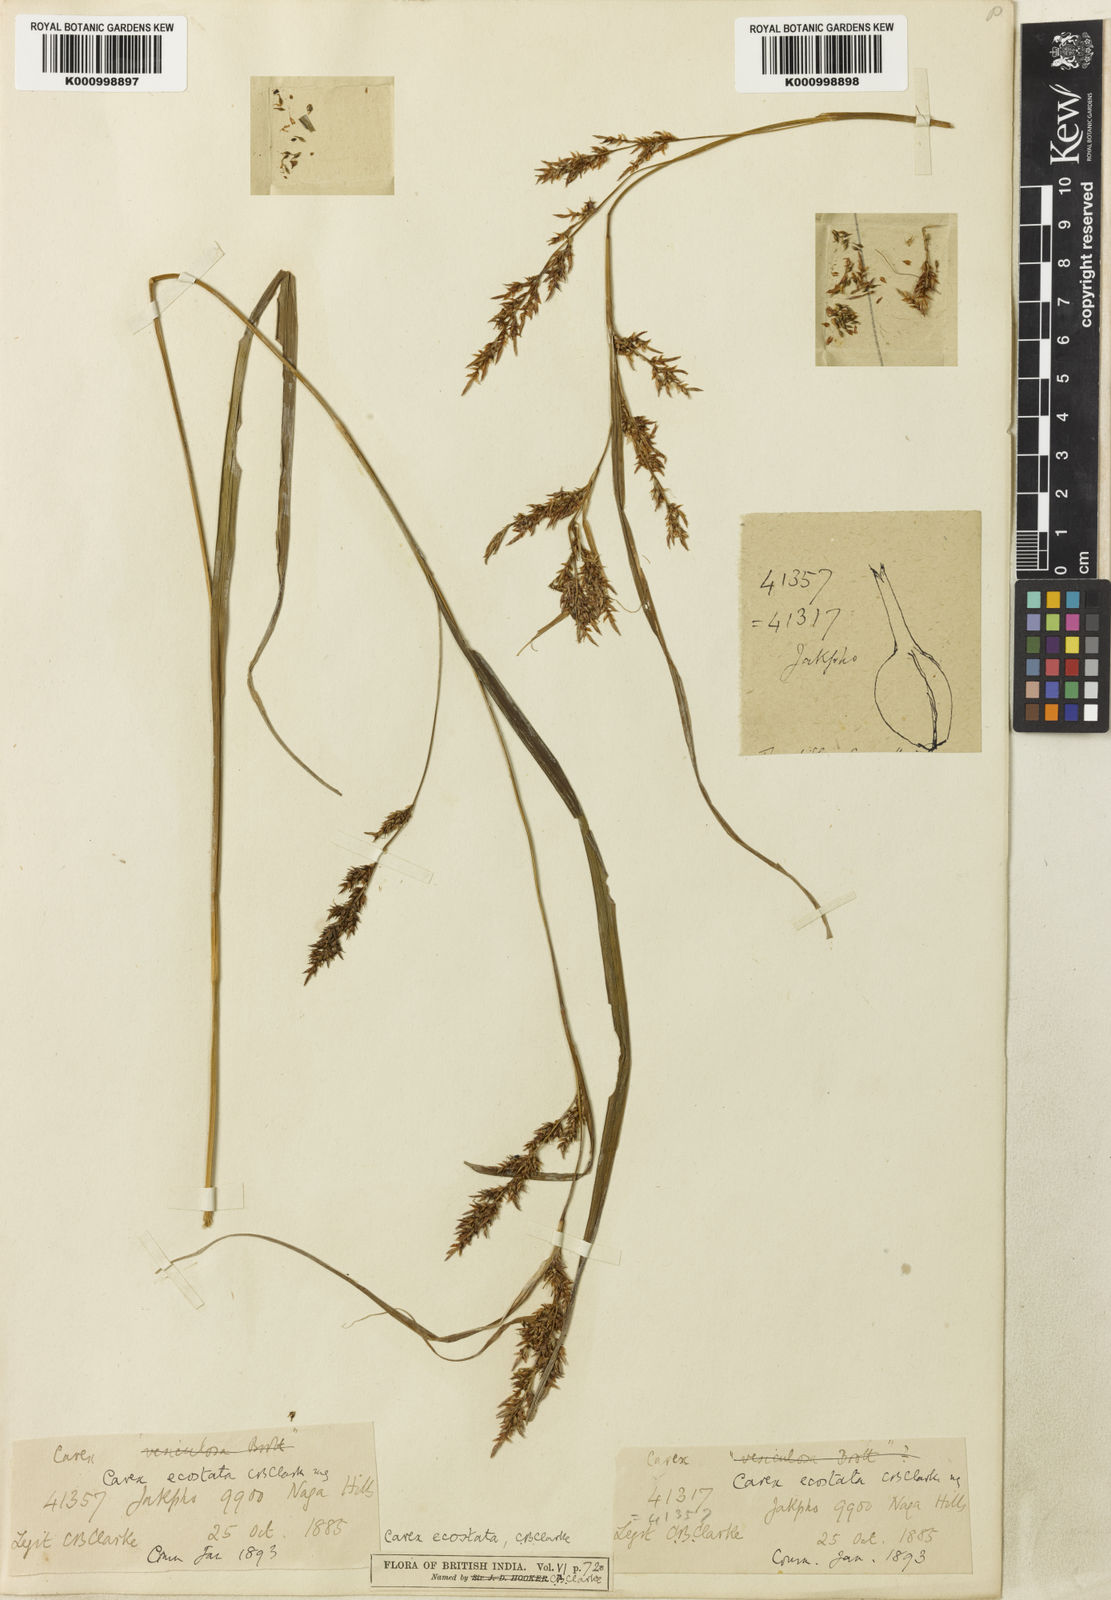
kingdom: Plantae
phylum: Tracheophyta
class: Liliopsida
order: Poales
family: Cyperaceae
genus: Carex
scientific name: Carex ecostata
